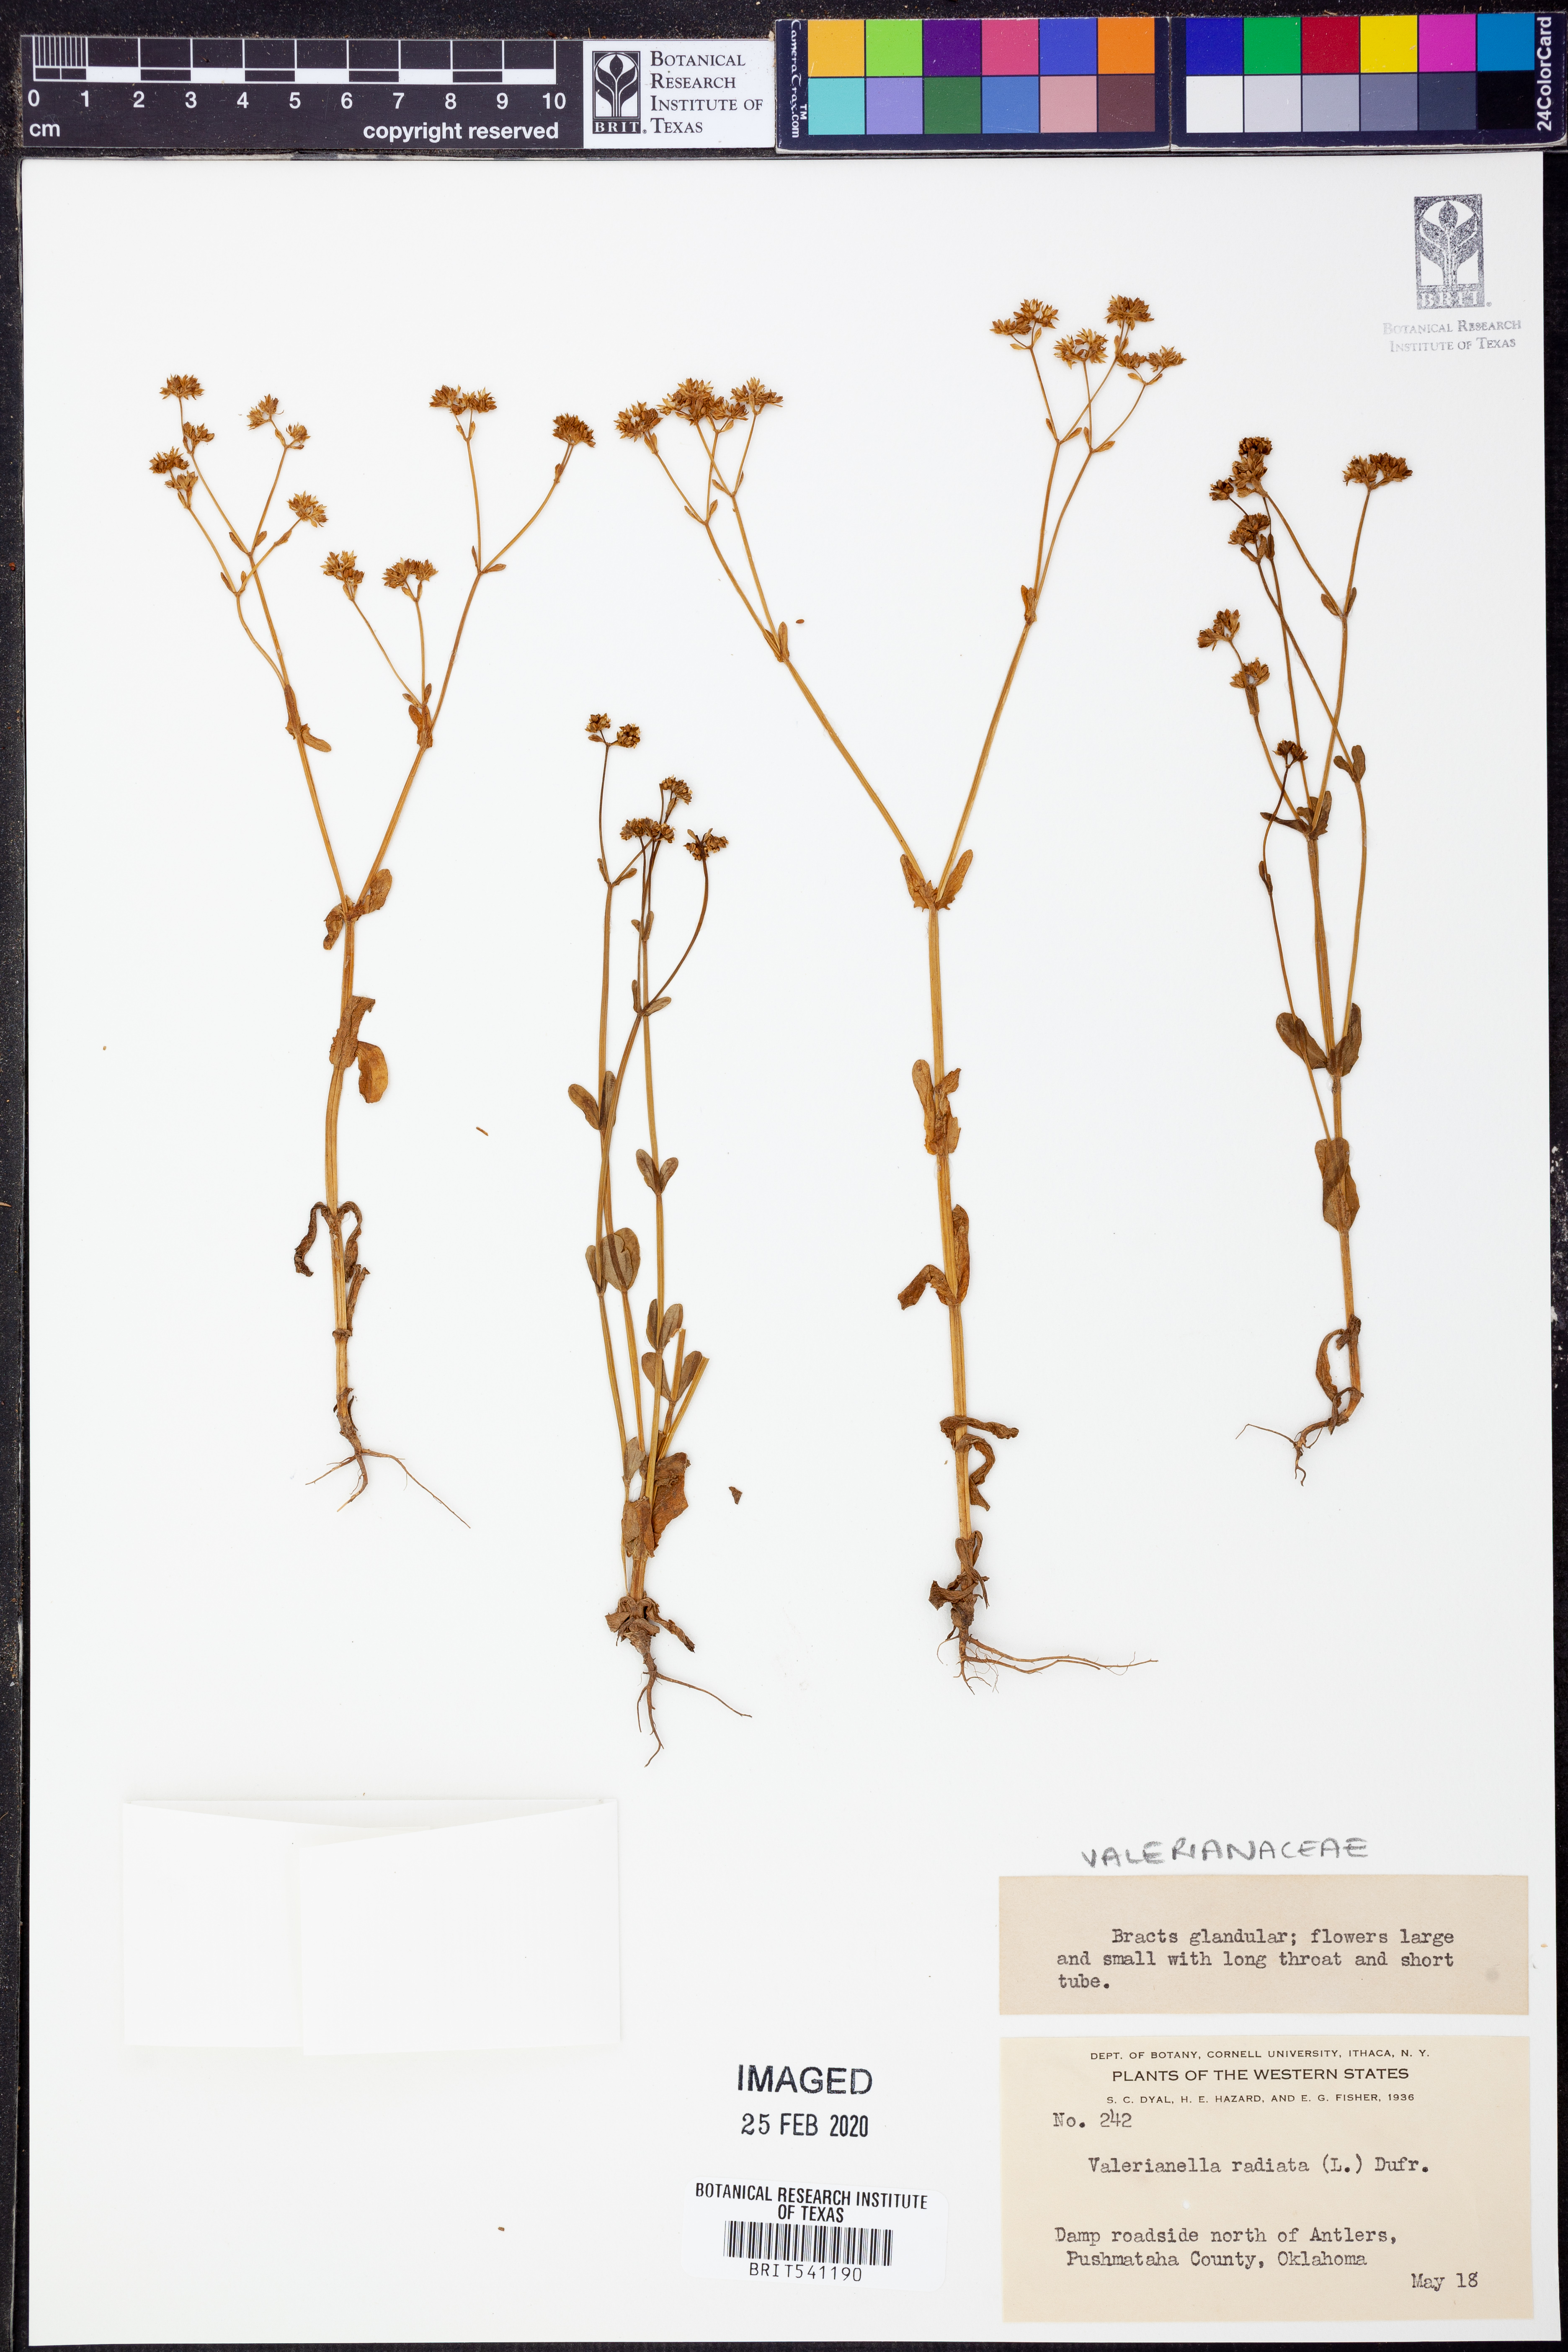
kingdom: Plantae
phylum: Tracheophyta
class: Magnoliopsida
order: Dipsacales
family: Caprifoliaceae
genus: Valerianella
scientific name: Valerianella radiata
